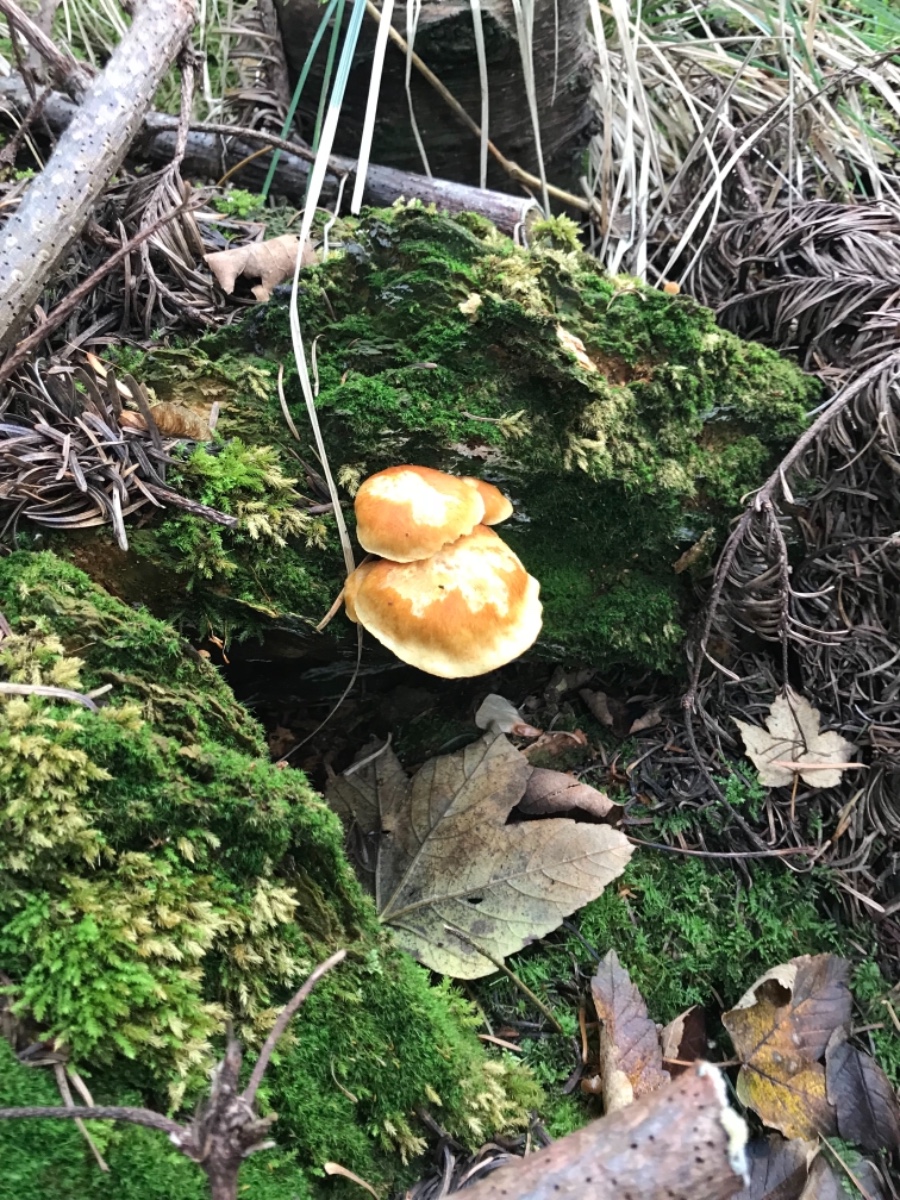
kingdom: Fungi
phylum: Basidiomycota
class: Agaricomycetes
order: Agaricales
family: Strophariaceae
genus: Hypholoma
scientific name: Hypholoma fasciculare
